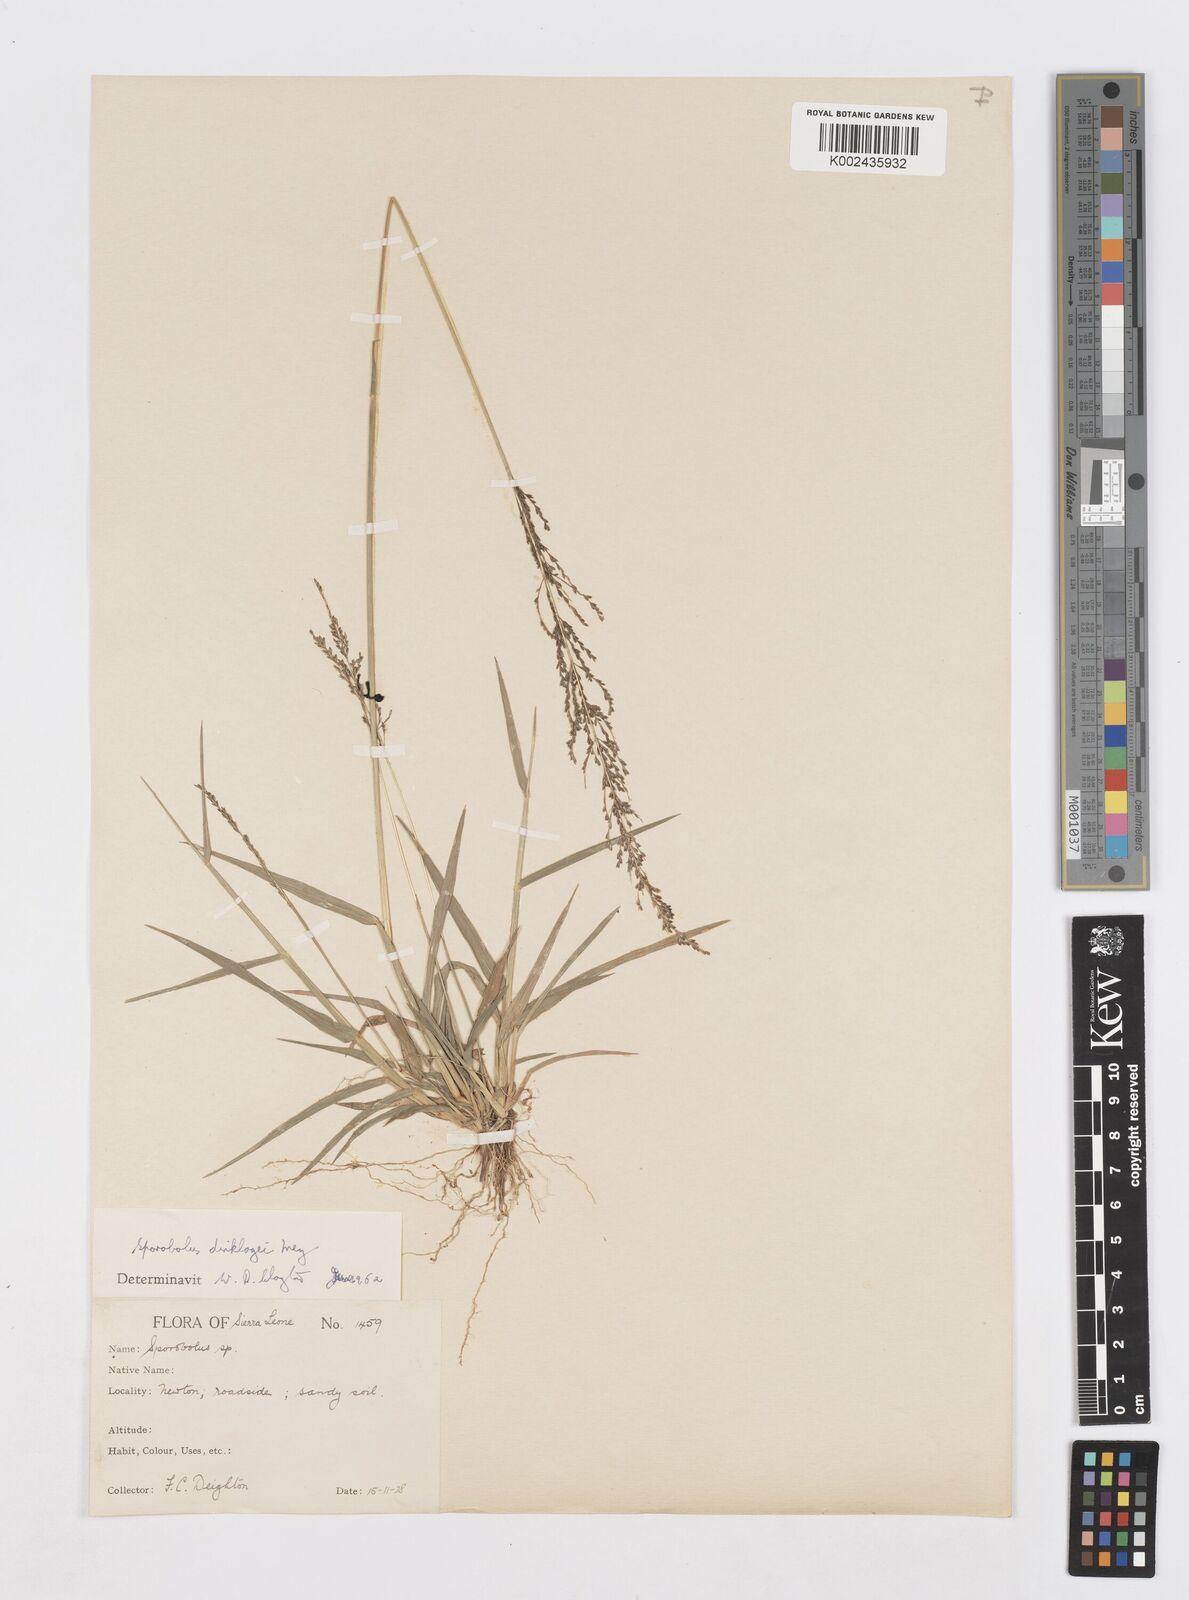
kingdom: Plantae
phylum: Tracheophyta
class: Liliopsida
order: Poales
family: Poaceae
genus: Sporobolus
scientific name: Sporobolus dinklagei
